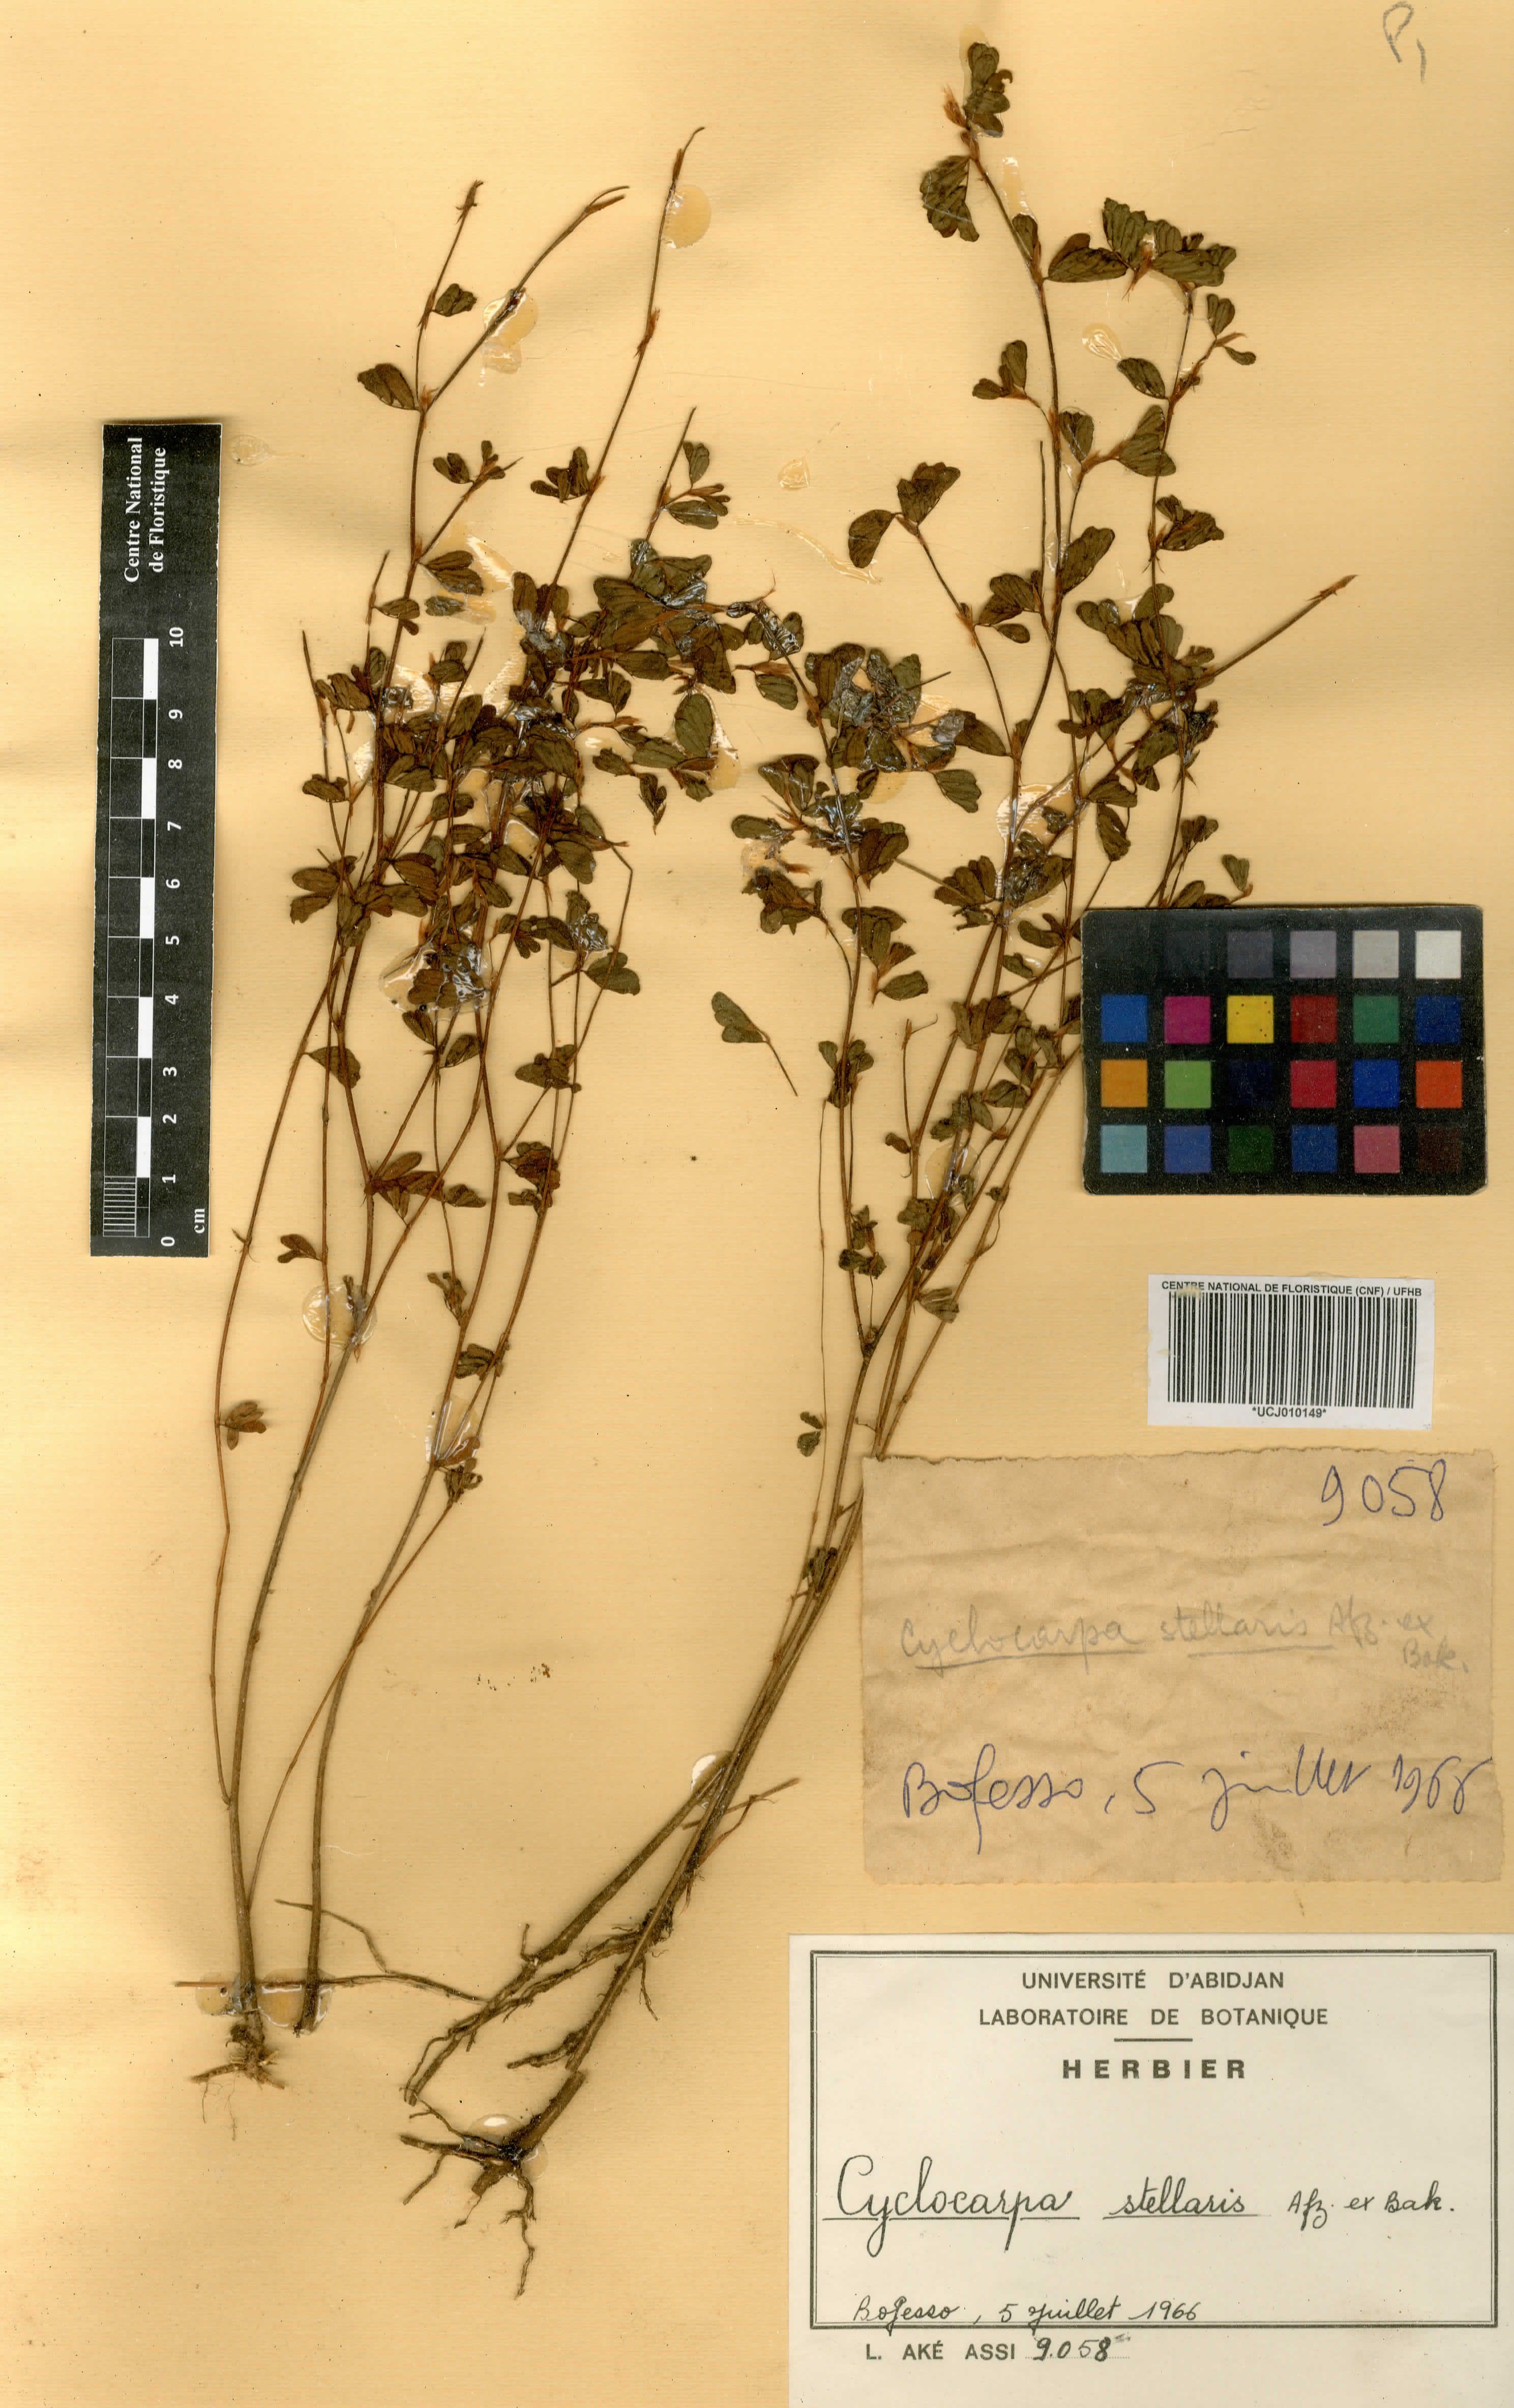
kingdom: Plantae
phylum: Tracheophyta
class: Magnoliopsida
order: Fabales
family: Fabaceae
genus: Cyclocarpa
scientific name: Cyclocarpa stellaris
